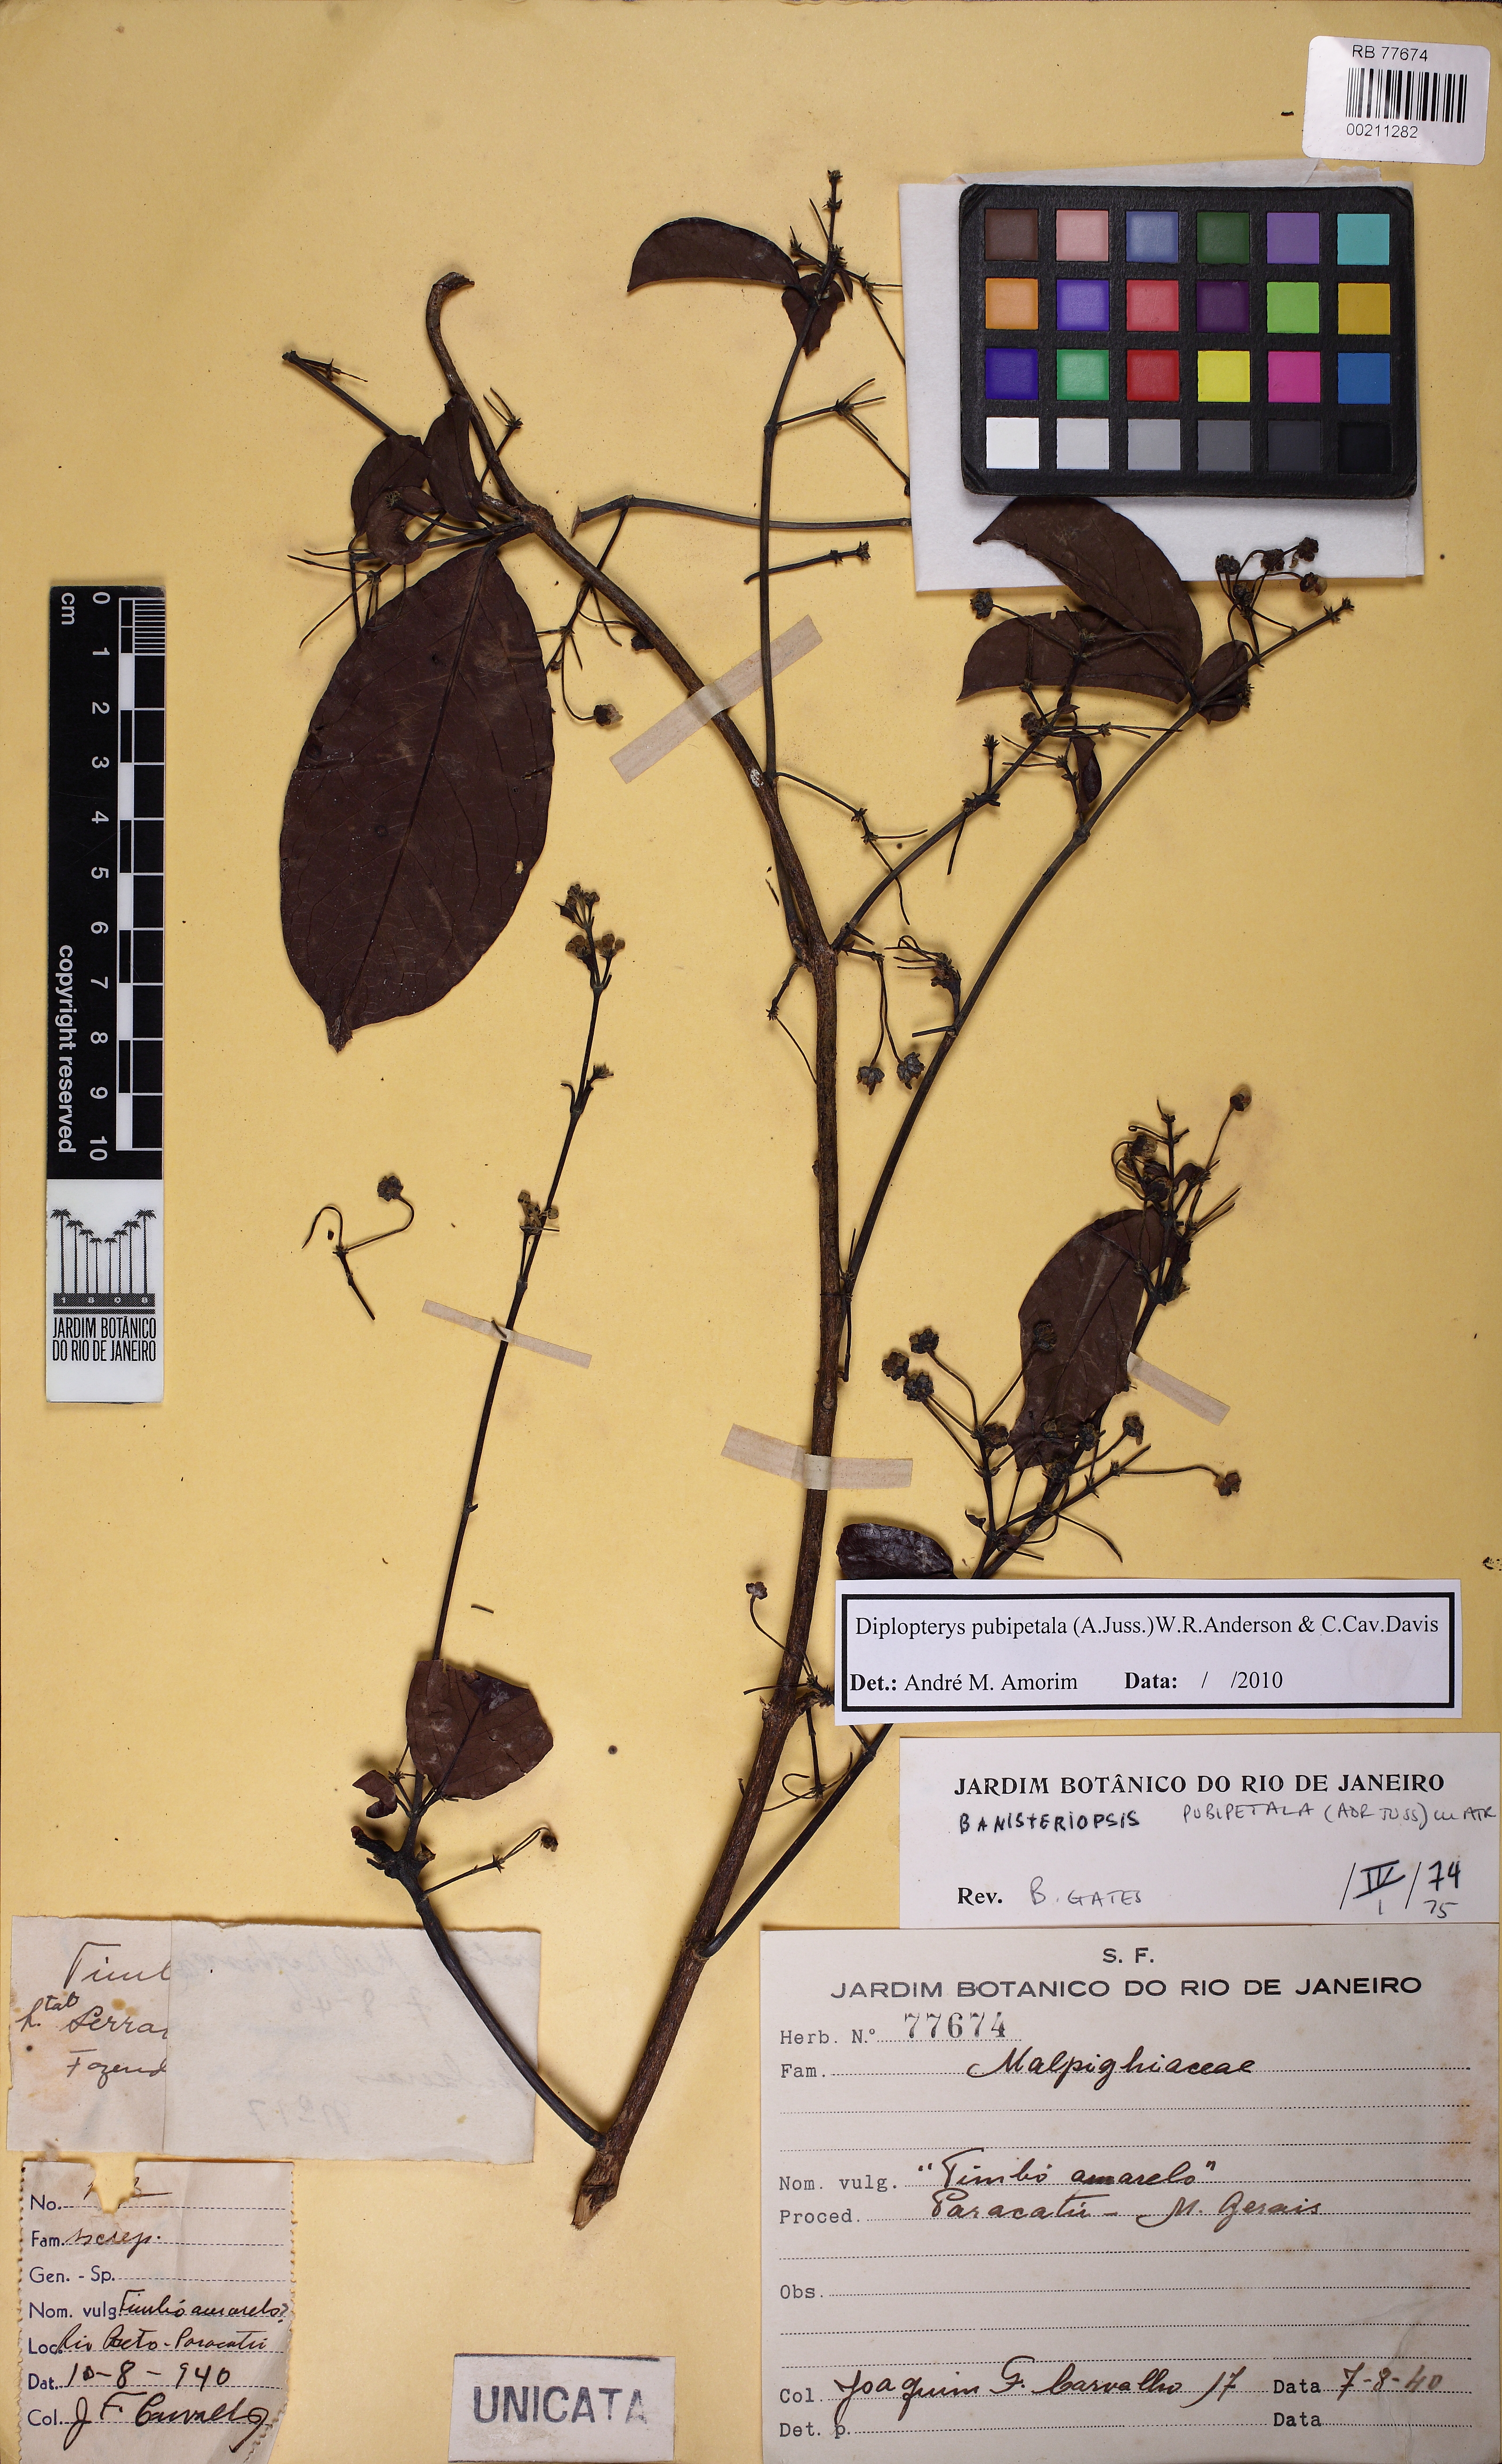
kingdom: Plantae
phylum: Tracheophyta
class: Magnoliopsida
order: Malpighiales
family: Malpighiaceae
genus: Diplopterys
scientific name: Diplopterys pubipetala
